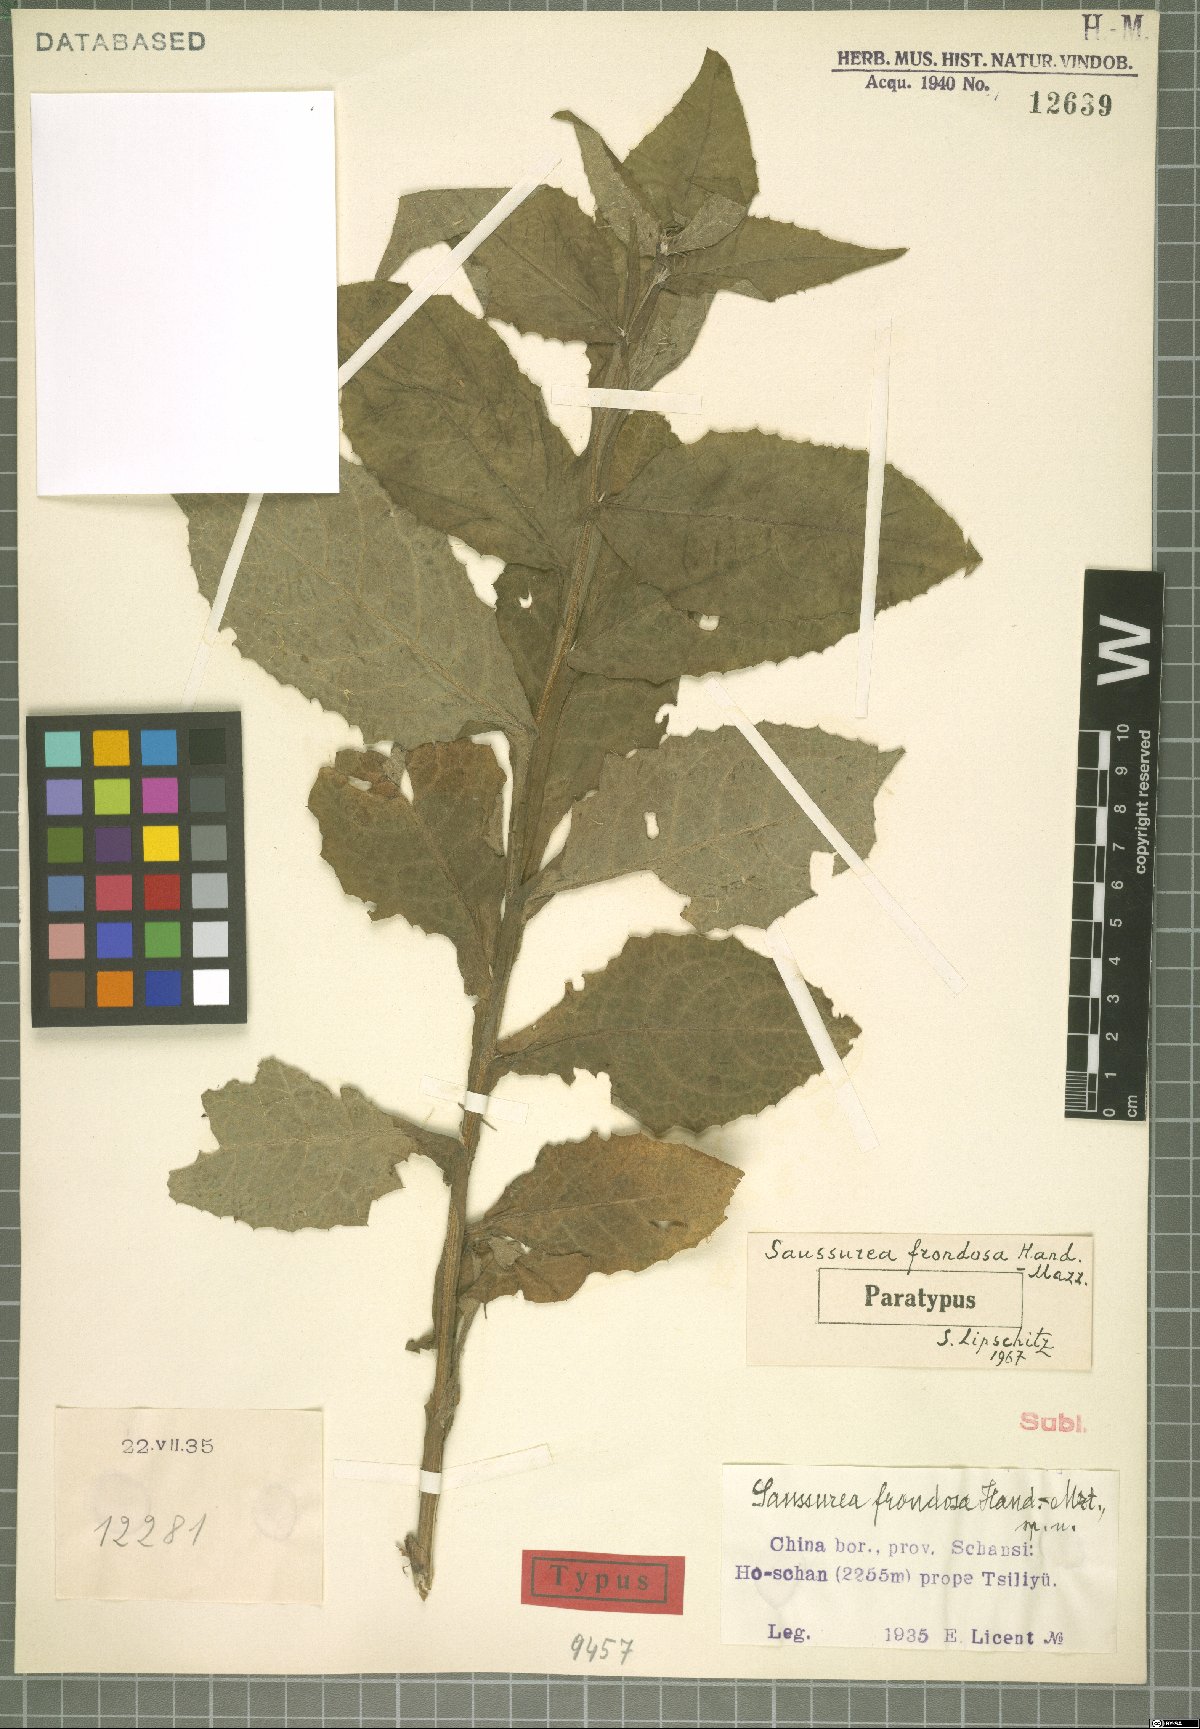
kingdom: Plantae
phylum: Tracheophyta
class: Magnoliopsida
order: Asterales
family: Asteraceae
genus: Saussurea
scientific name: Saussurea frondosa
